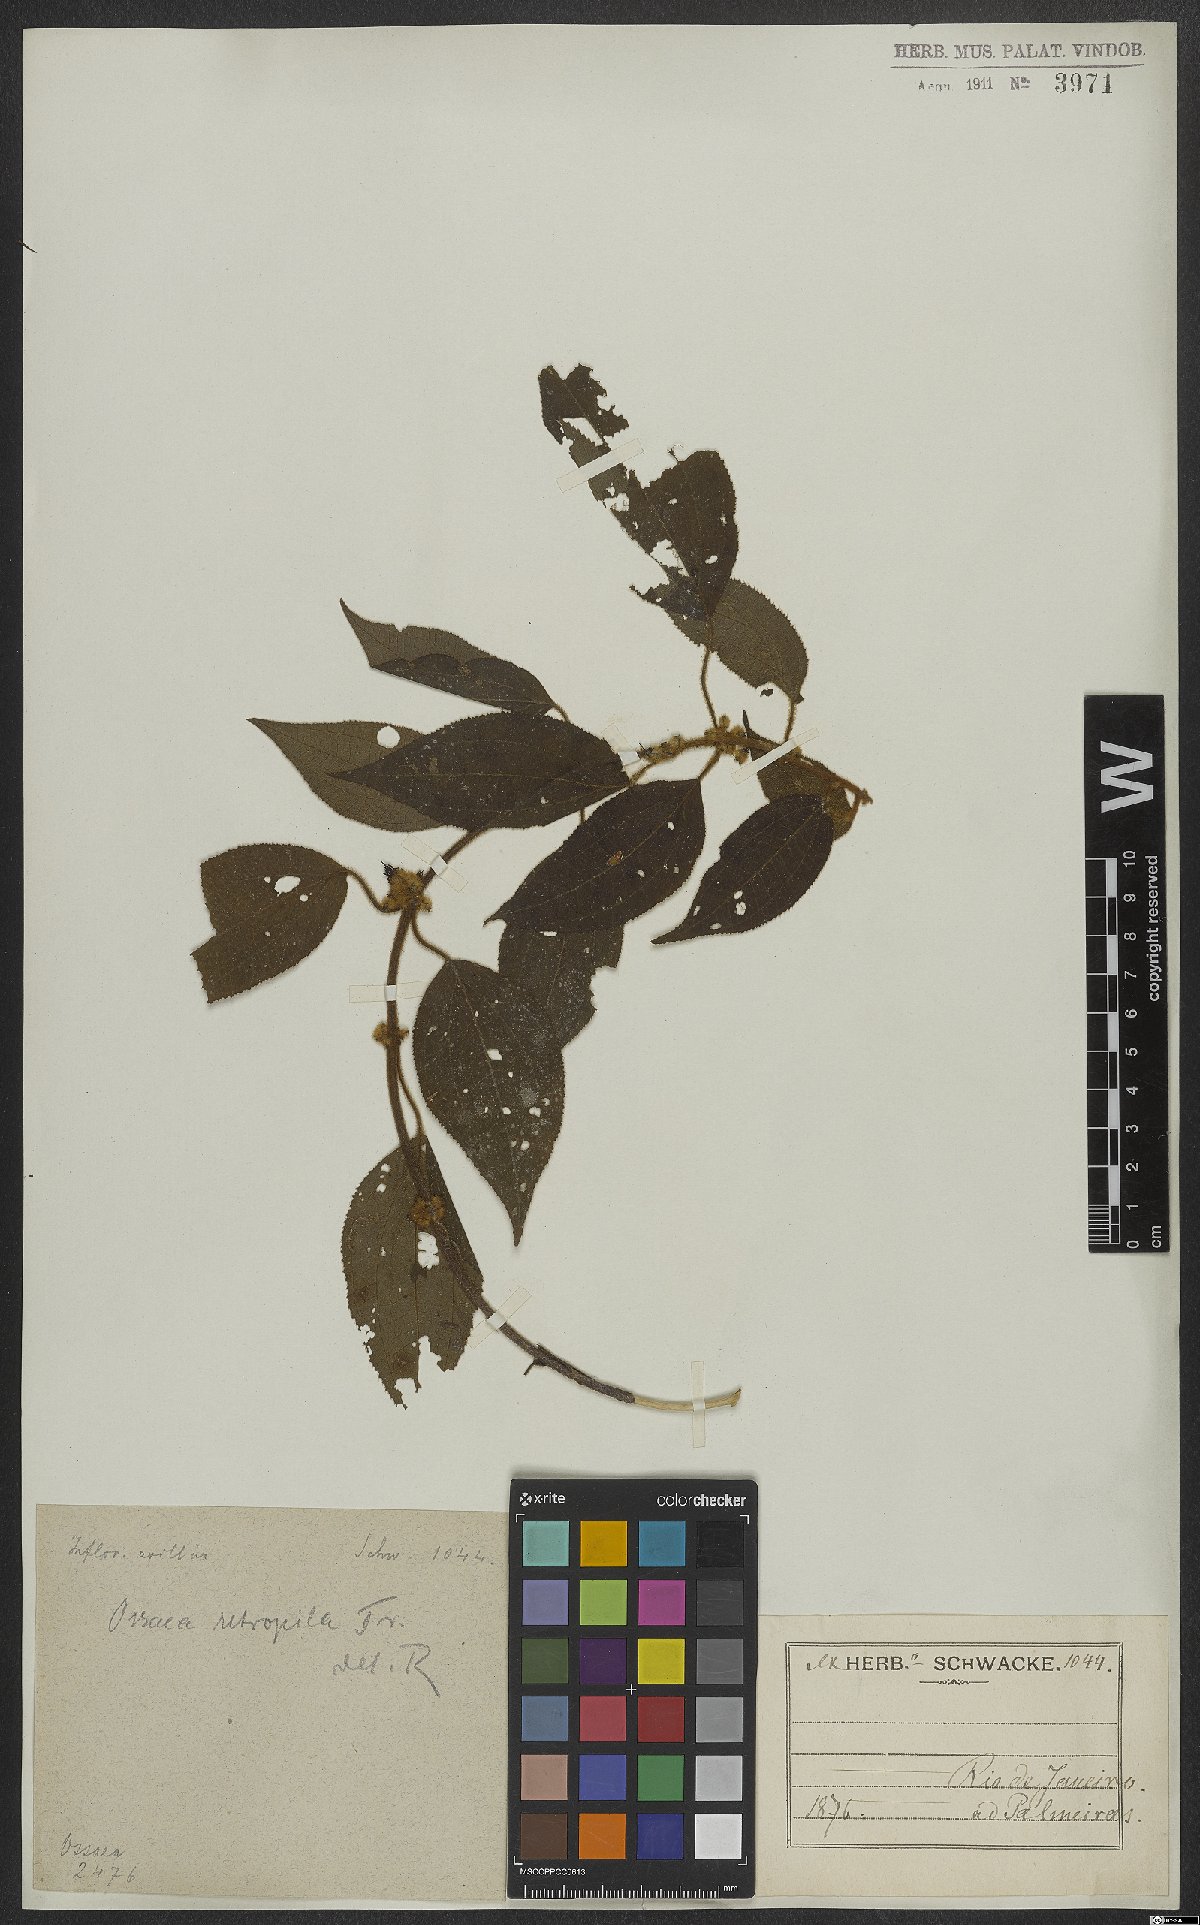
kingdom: Plantae
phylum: Tracheophyta
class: Magnoliopsida
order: Myrtales
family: Melastomataceae
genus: Miconia
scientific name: Miconia rubella
